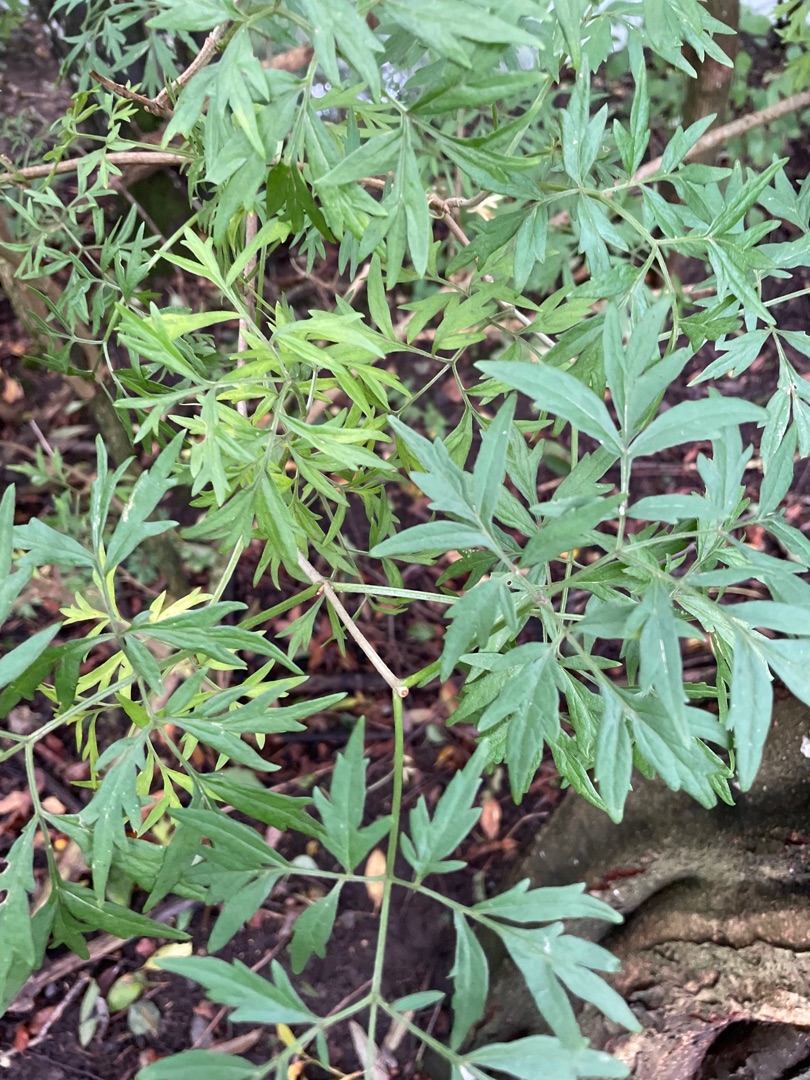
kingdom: Plantae
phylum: Tracheophyta
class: Magnoliopsida
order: Dipsacales
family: Viburnaceae
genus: Sambucus
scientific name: Sambucus nigra
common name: Almindelig hyld
